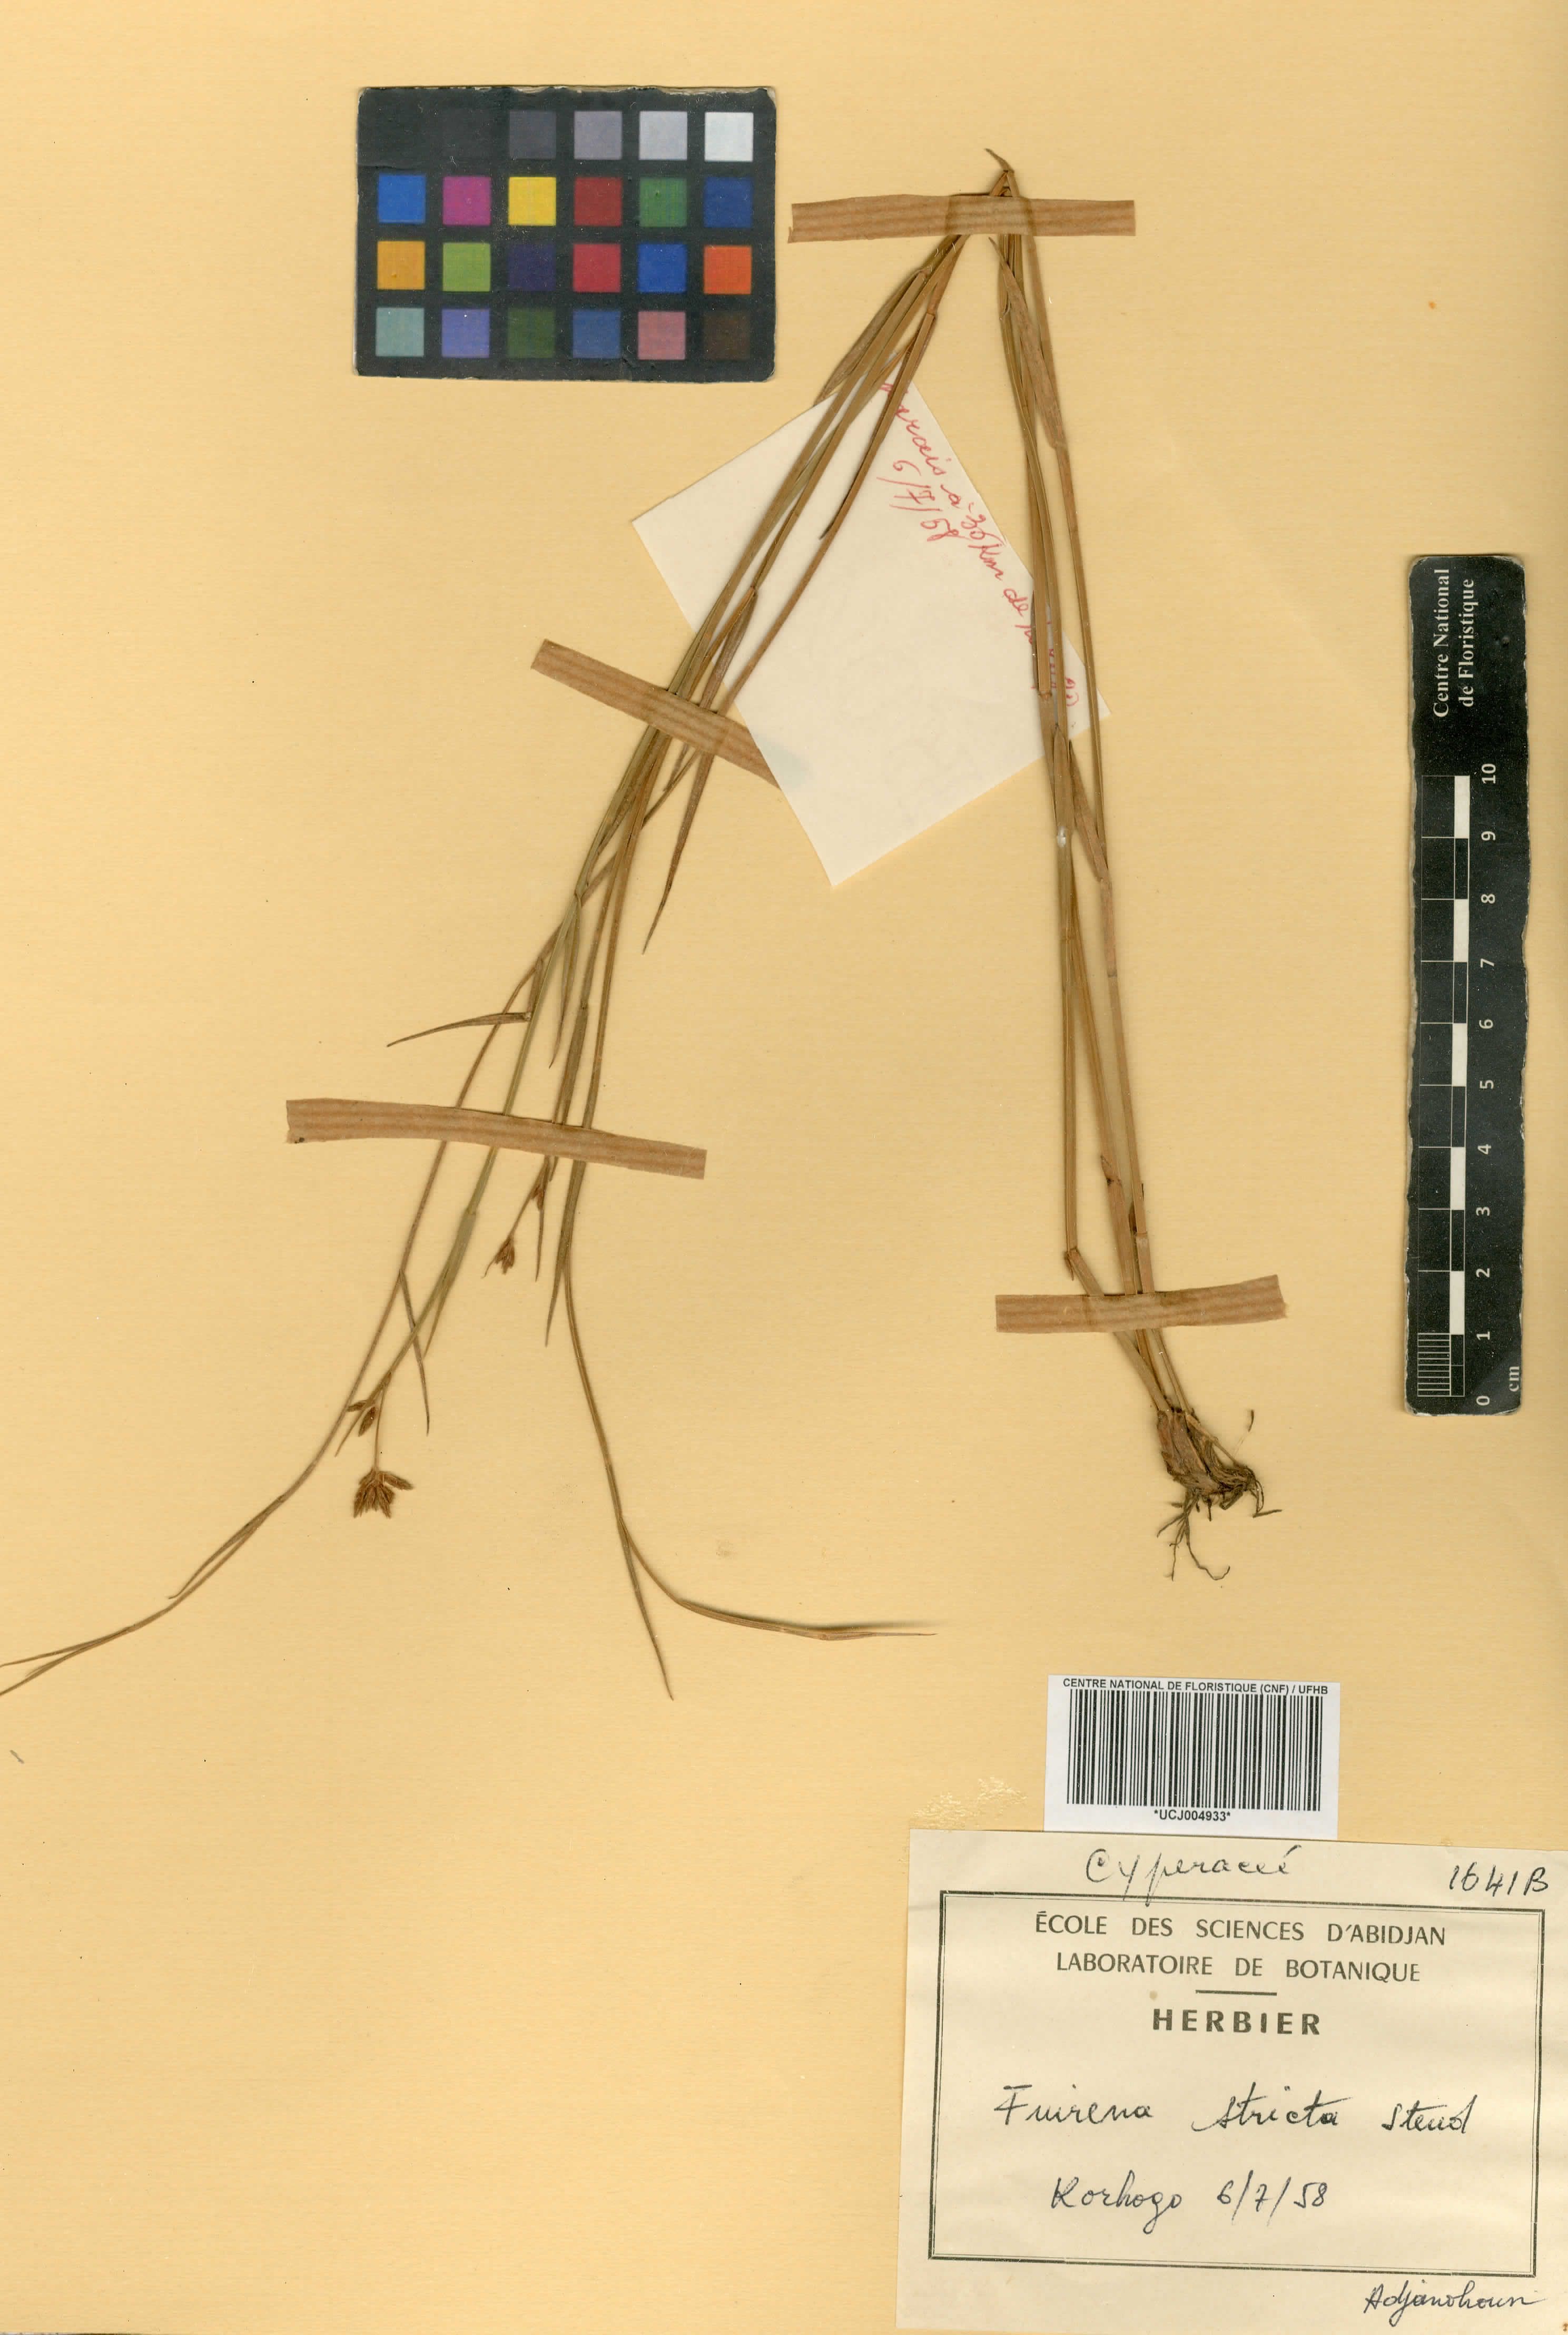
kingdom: Plantae
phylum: Tracheophyta
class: Liliopsida
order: Poales
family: Cyperaceae
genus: Fuirena
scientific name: Fuirena stricta
